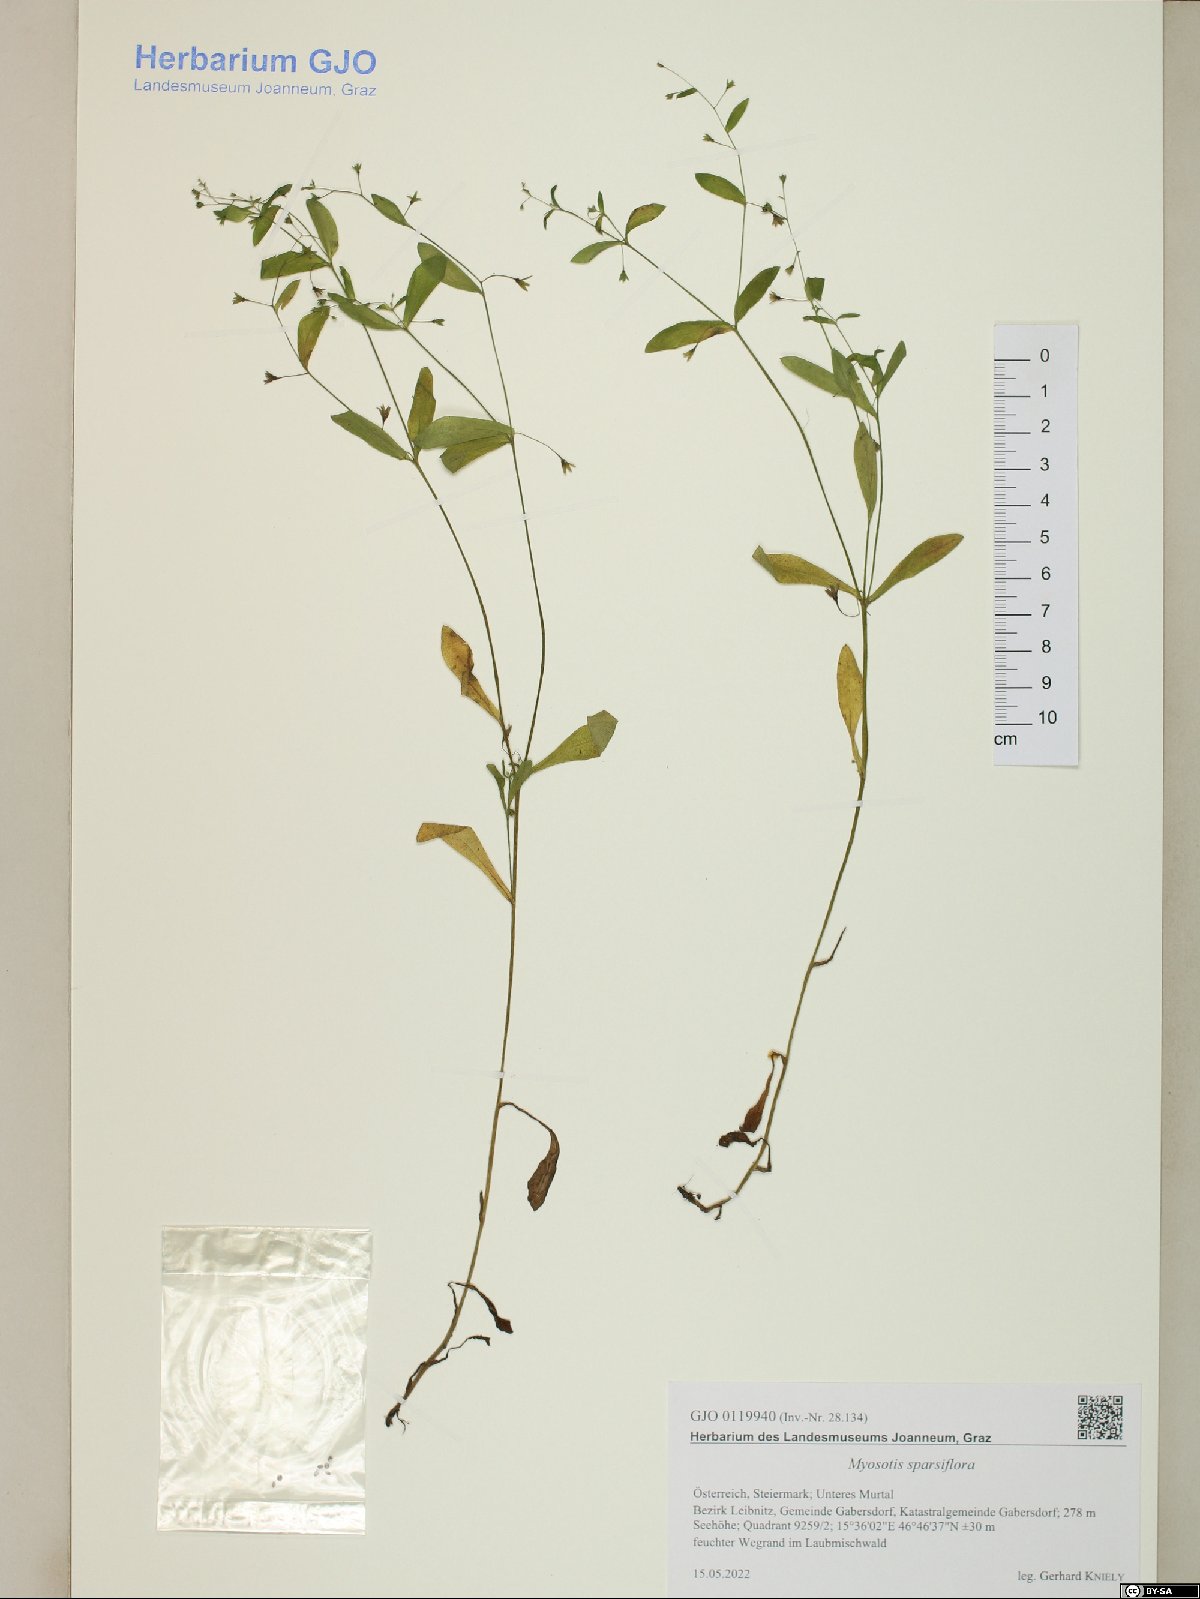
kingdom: Plantae
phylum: Tracheophyta
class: Magnoliopsida
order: Boraginales
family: Boraginaceae
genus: Myosotis
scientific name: Myosotis sparsiflora
